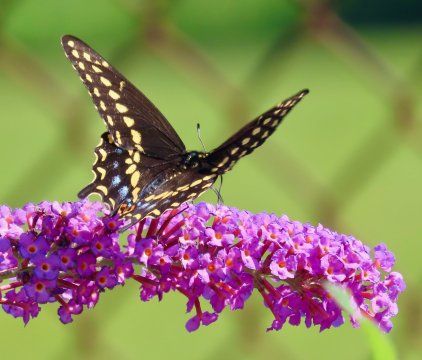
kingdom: Animalia
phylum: Arthropoda
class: Insecta
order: Lepidoptera
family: Papilionidae
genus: Papilio
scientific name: Papilio polyxenes
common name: Black Swallowtail
